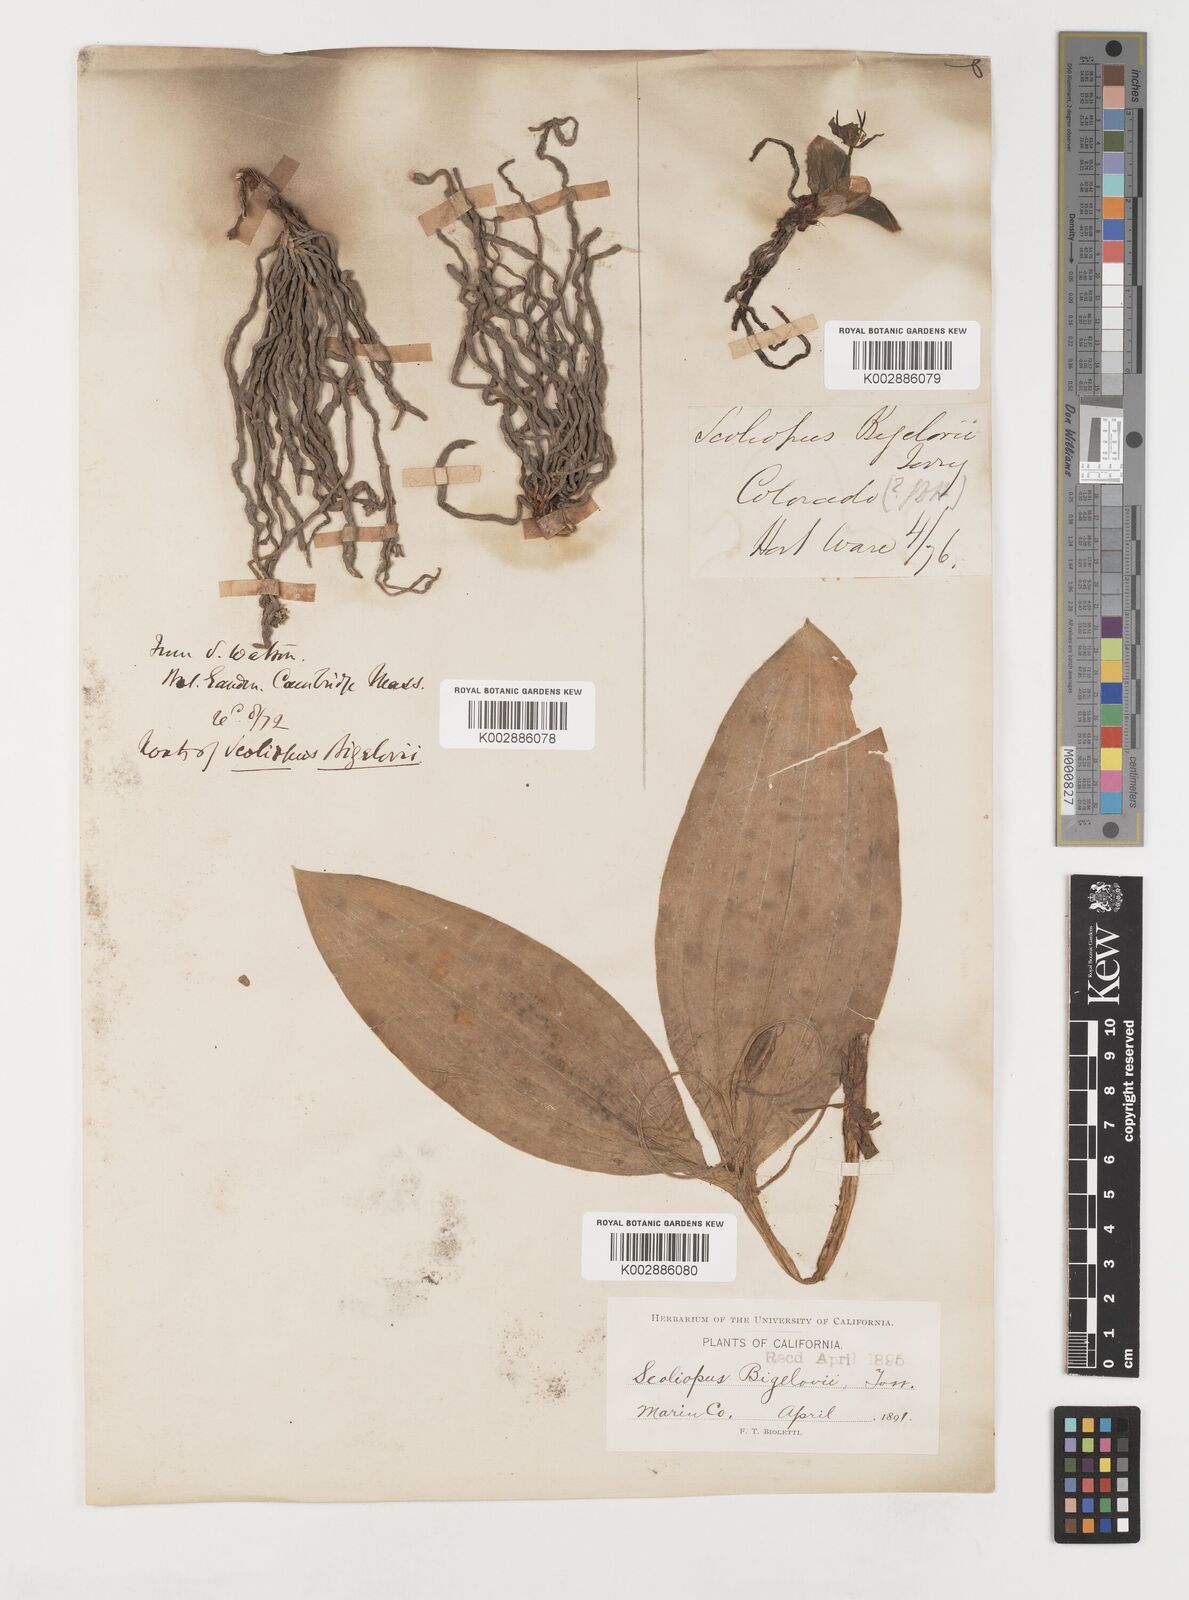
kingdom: Plantae
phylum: Tracheophyta
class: Liliopsida
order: Liliales
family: Liliaceae
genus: Scoliopus
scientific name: Scoliopus bigelovii
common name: Foetid adder's-tongue
